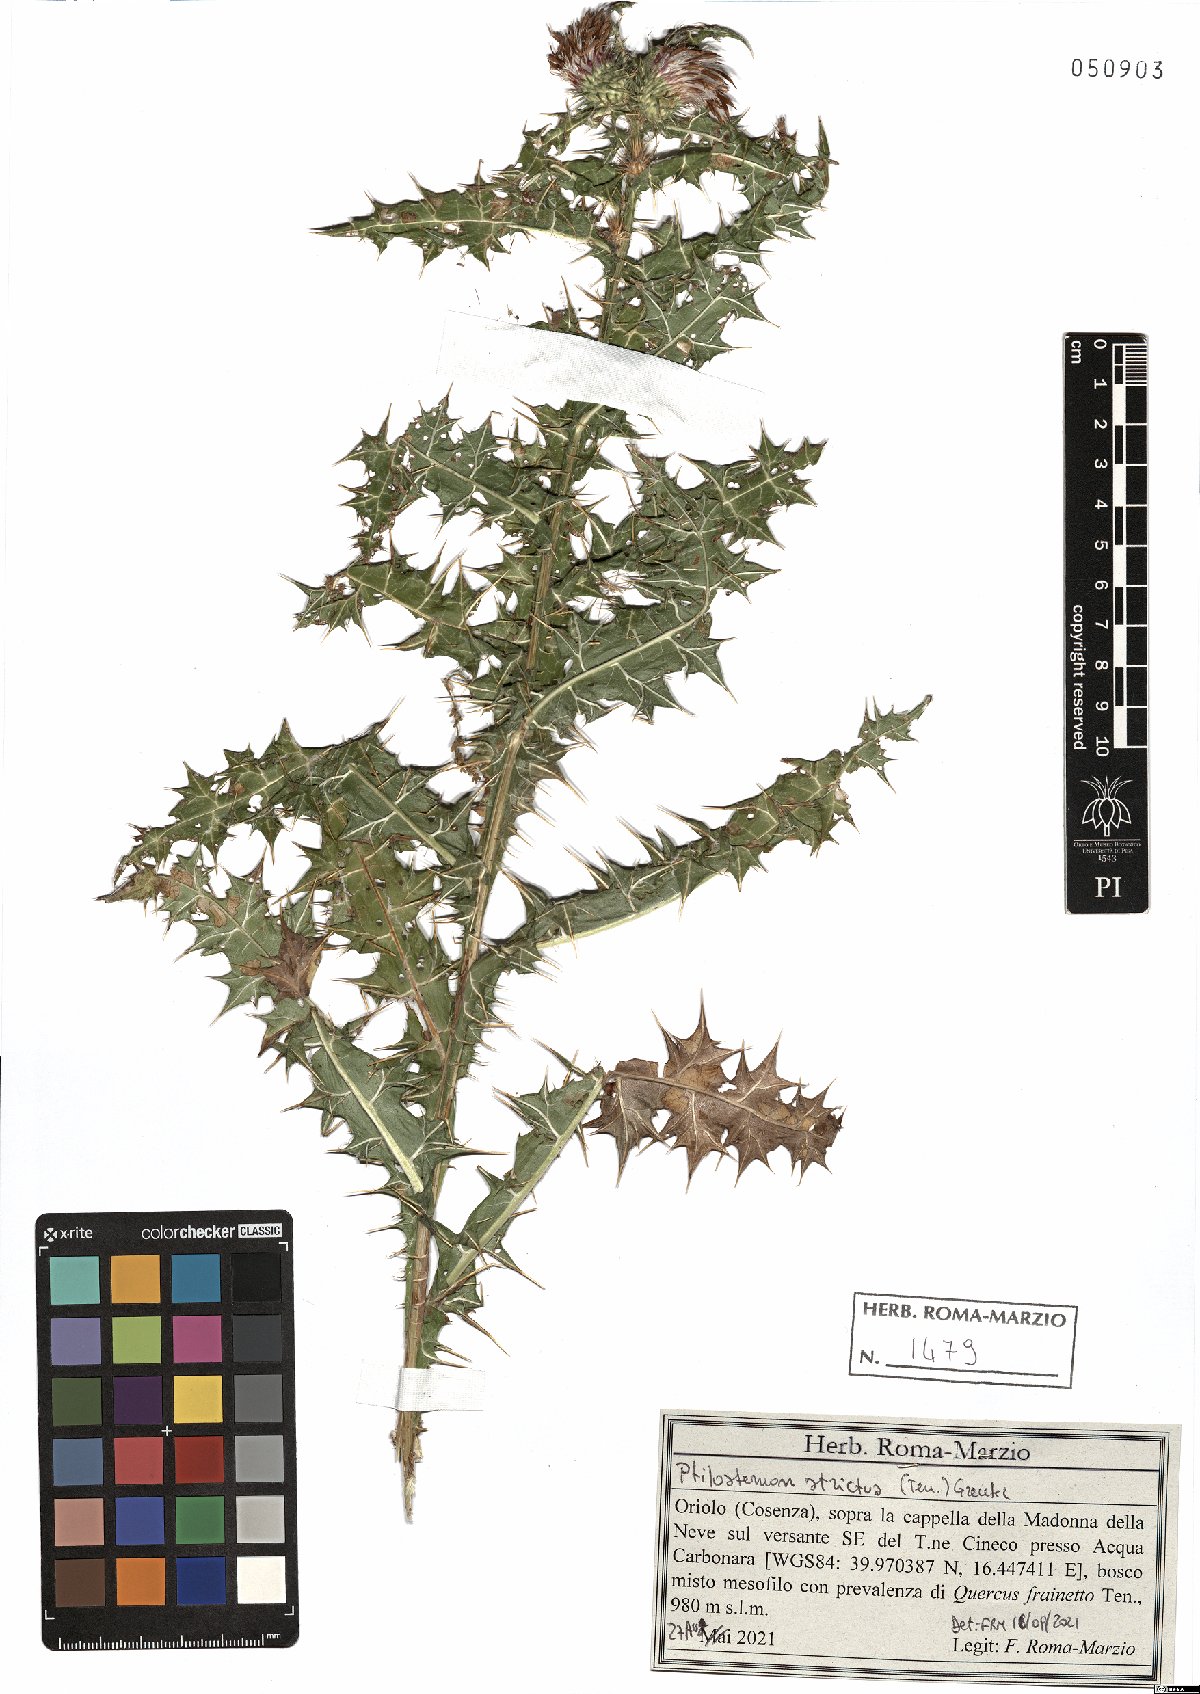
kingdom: Plantae
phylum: Tracheophyta
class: Magnoliopsida
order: Asterales
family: Asteraceae
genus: Ptilostemon
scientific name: Ptilostemon strictus
